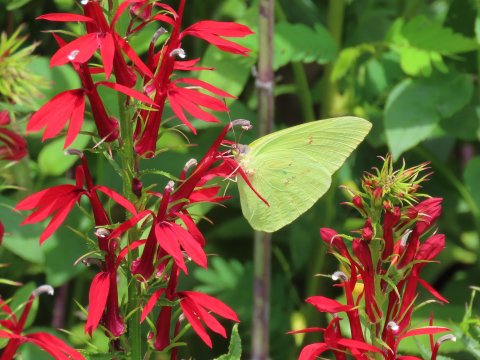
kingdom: Animalia
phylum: Arthropoda
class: Insecta
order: Lepidoptera
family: Pieridae
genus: Phoebis
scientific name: Phoebis sennae
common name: Cloudless Sulphur
